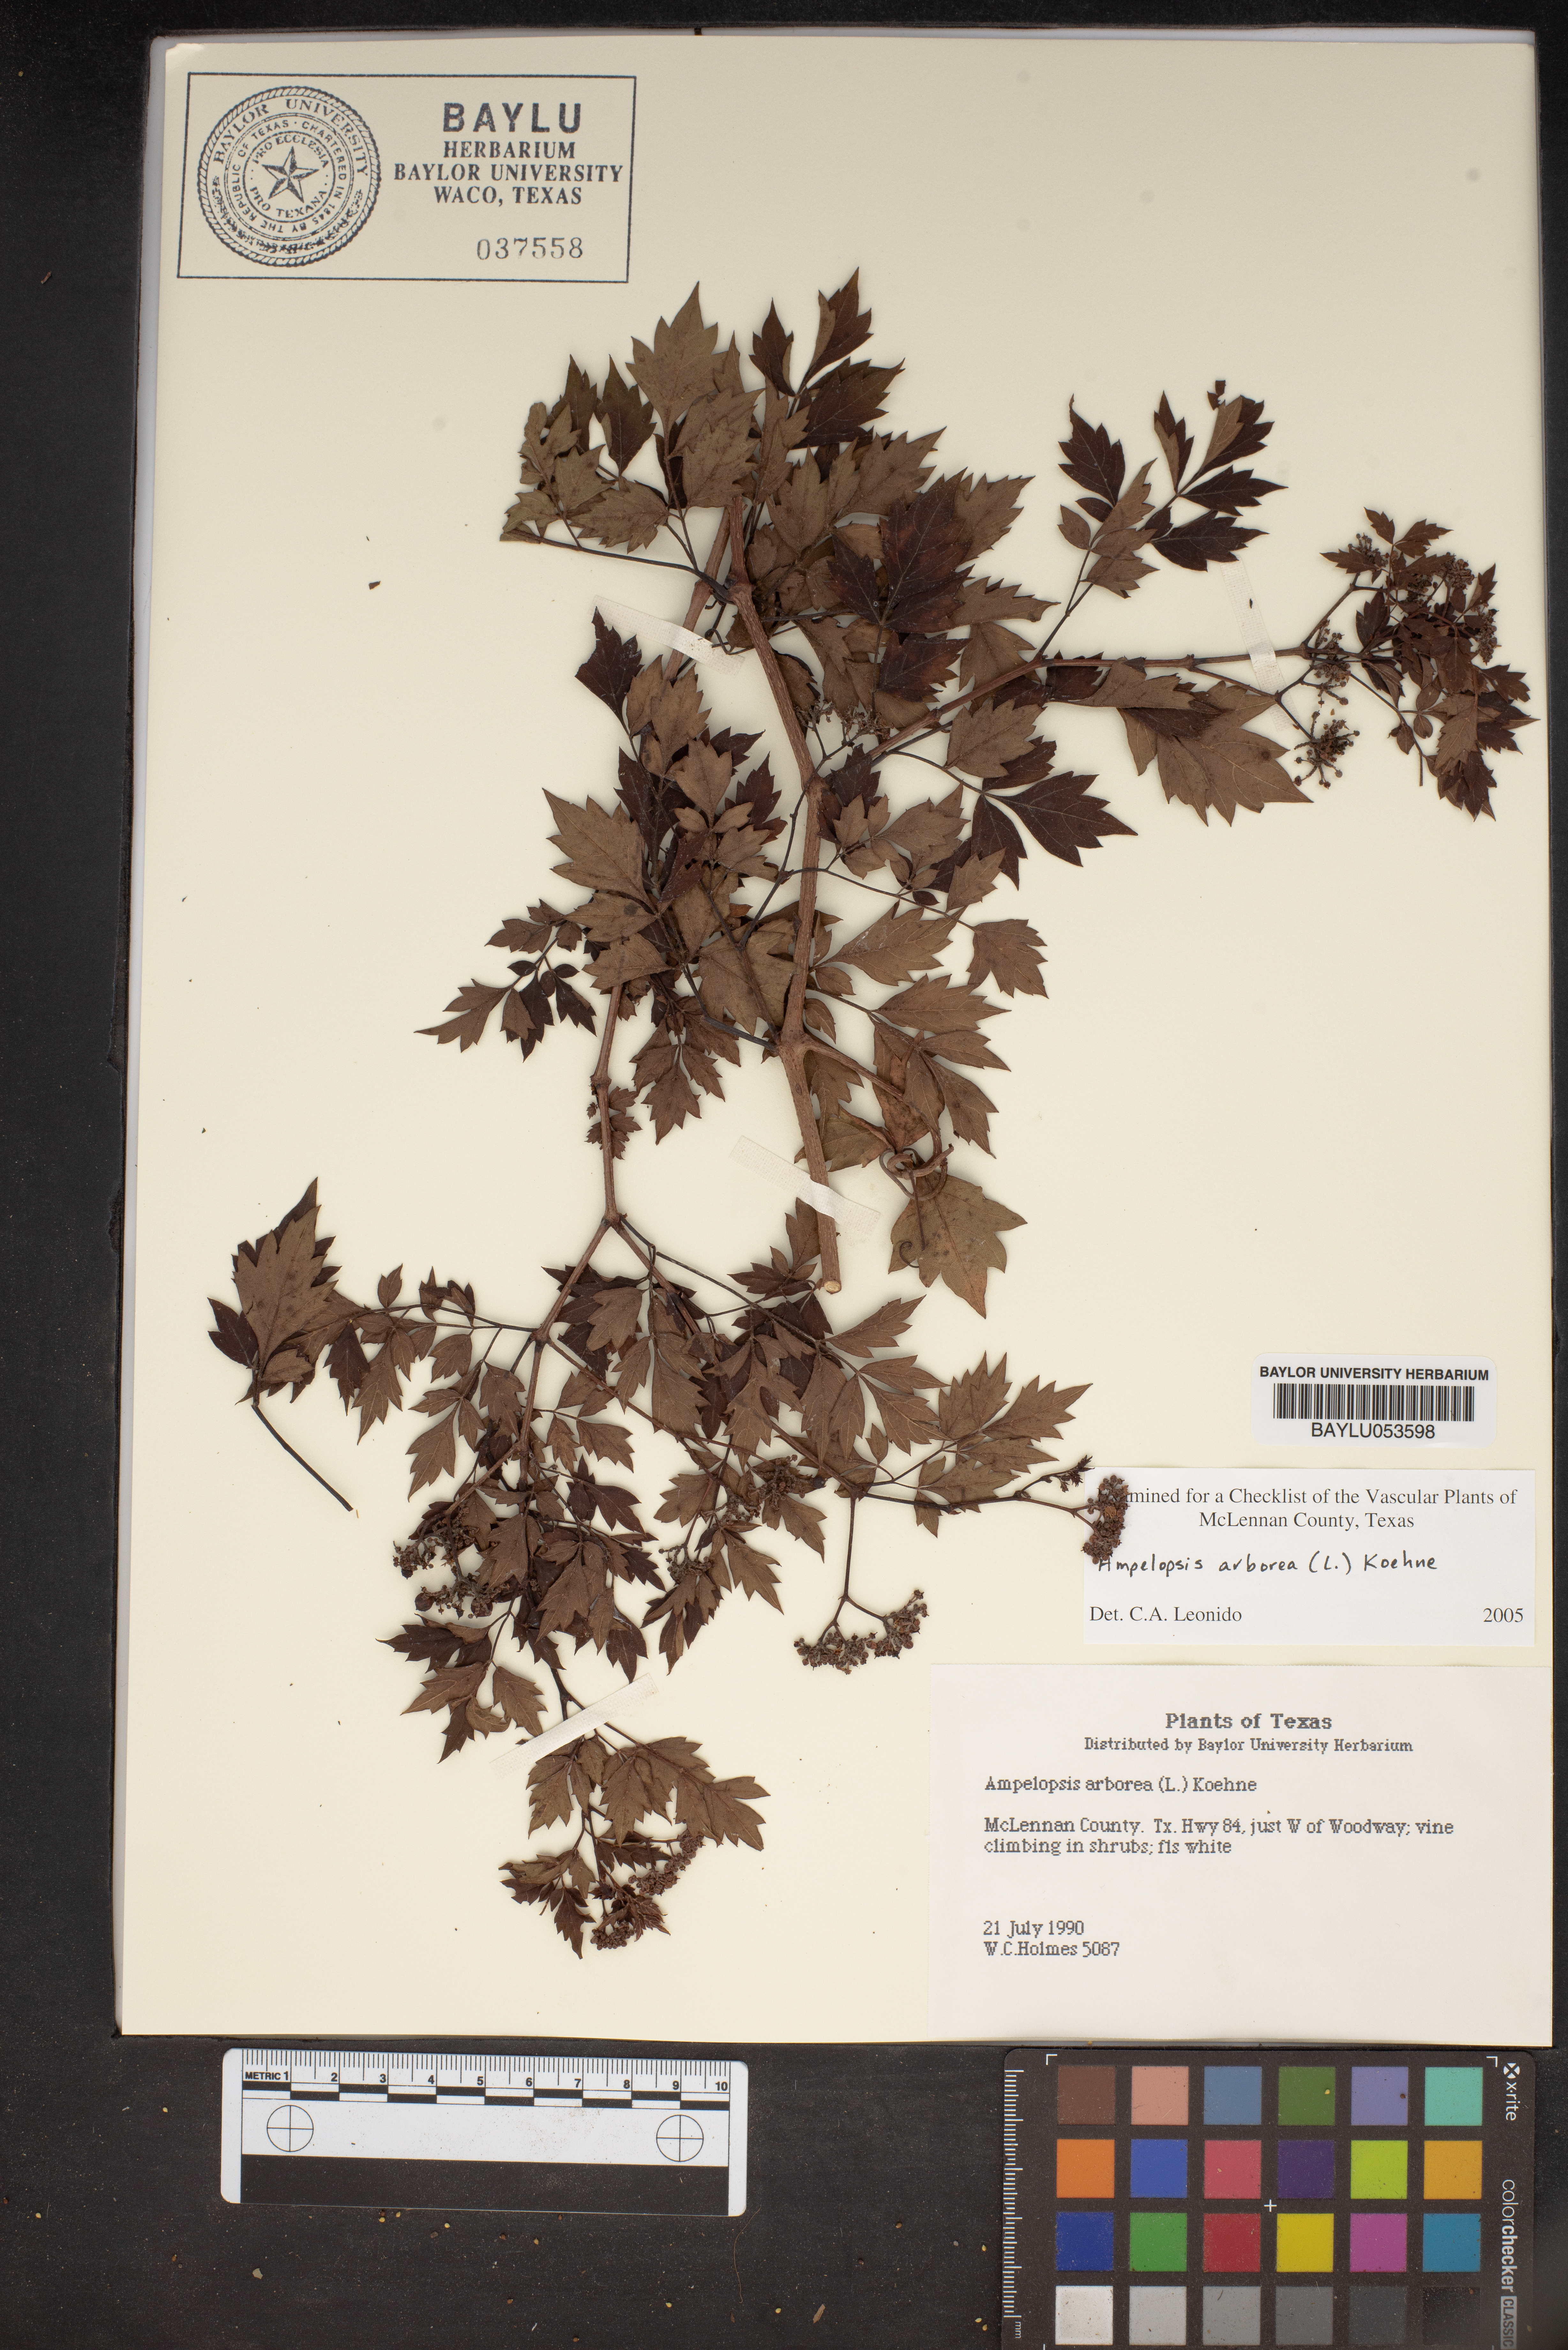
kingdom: Plantae
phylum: Tracheophyta
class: Magnoliopsida
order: Vitales
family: Vitaceae
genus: Nekemias
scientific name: Nekemias arborea
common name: Peppervine
